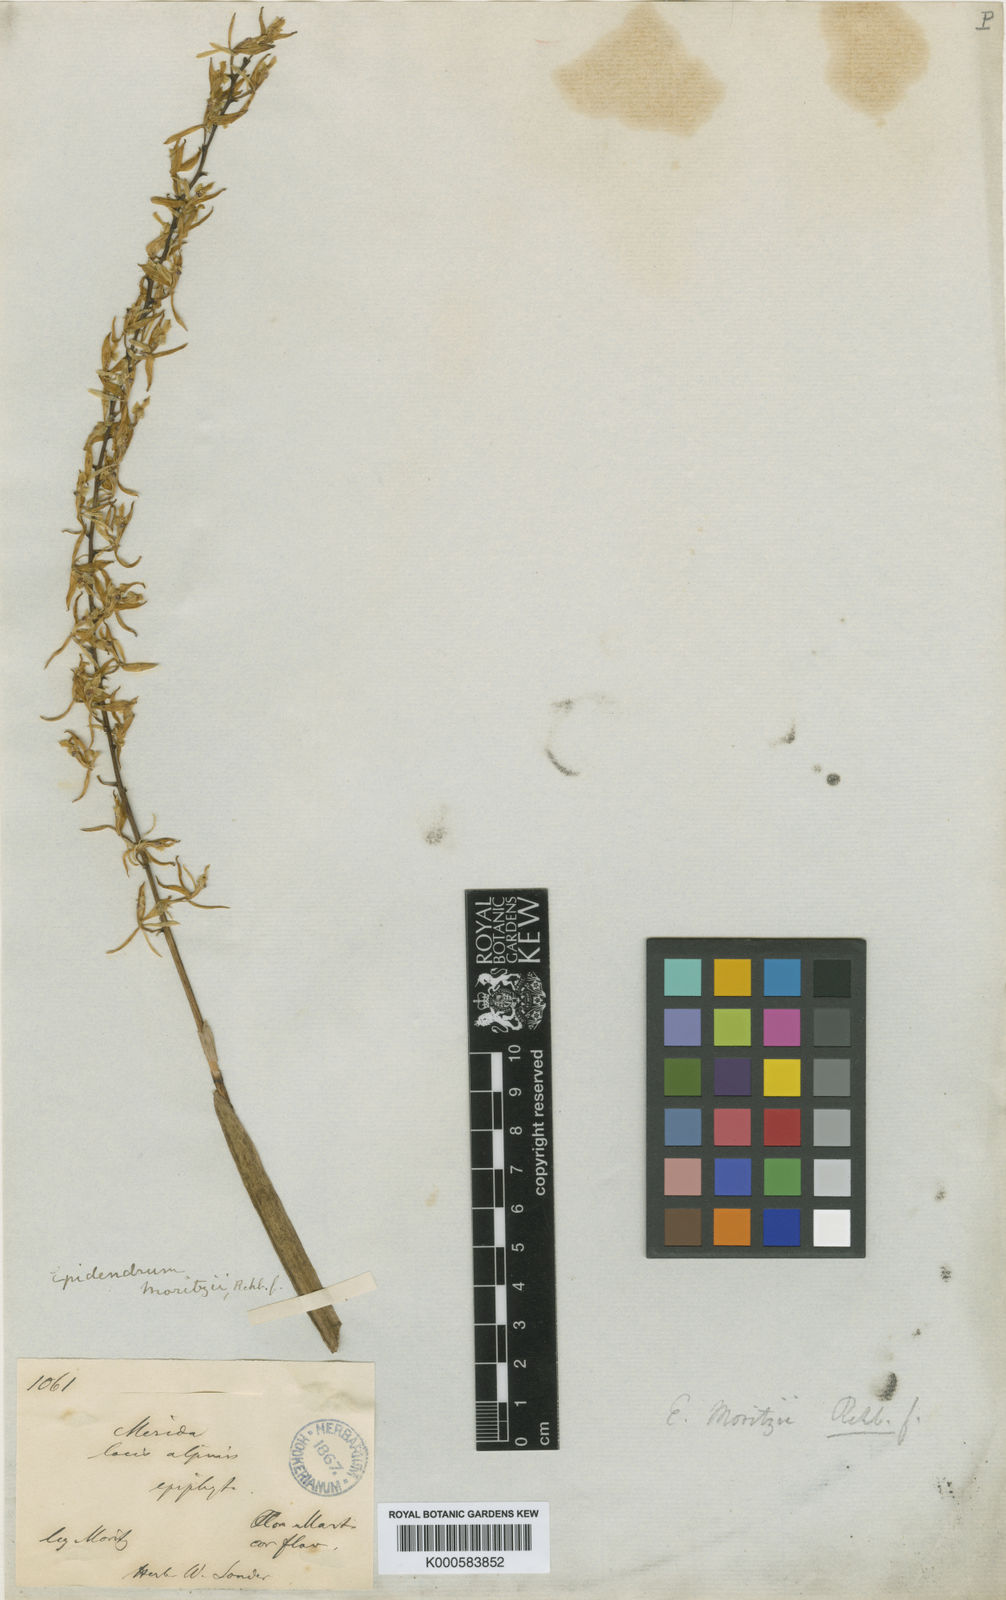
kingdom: Plantae
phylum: Tracheophyta
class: Liliopsida
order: Asparagales
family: Orchidaceae
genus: Epidendrum
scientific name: Epidendrum moritzii
